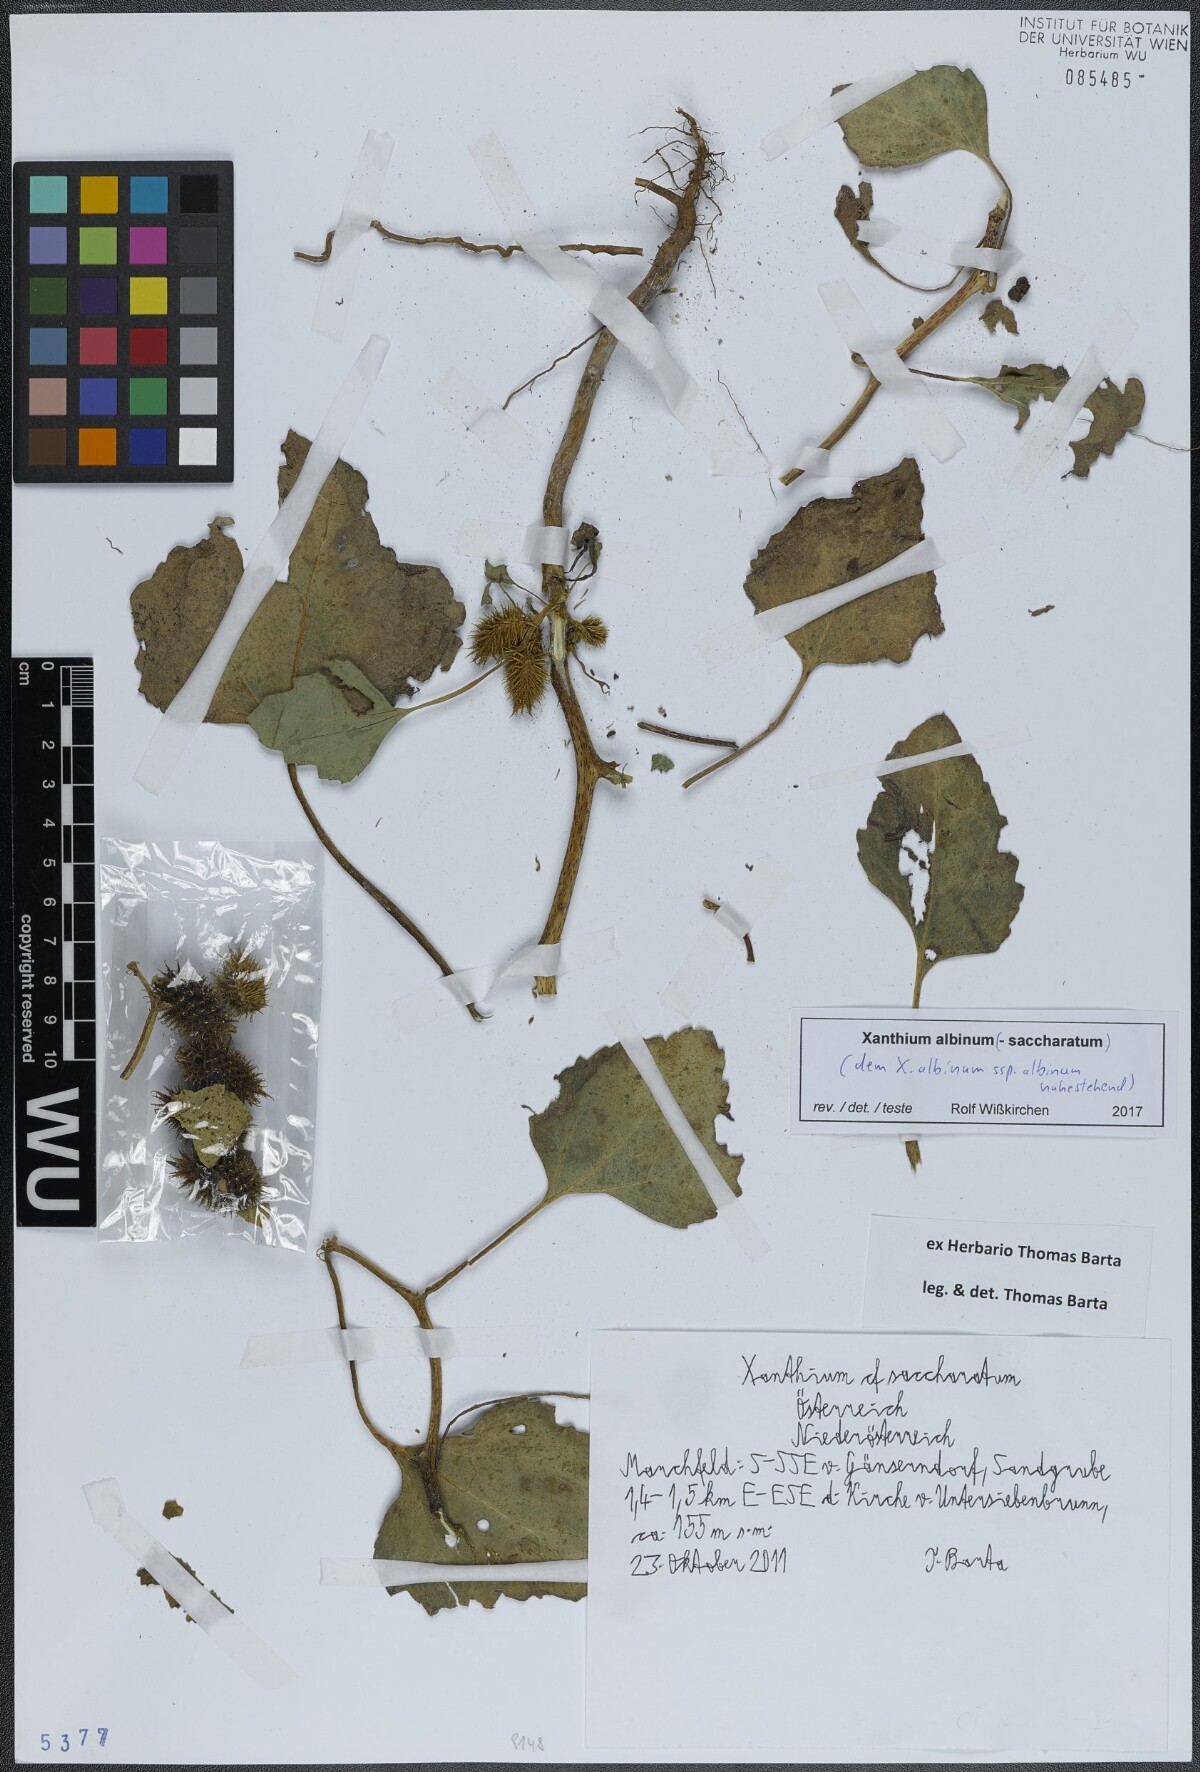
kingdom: Plantae
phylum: Tracheophyta
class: Magnoliopsida
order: Asterales
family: Asteraceae
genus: Xanthium
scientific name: Xanthium orientale
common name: Californian burr
